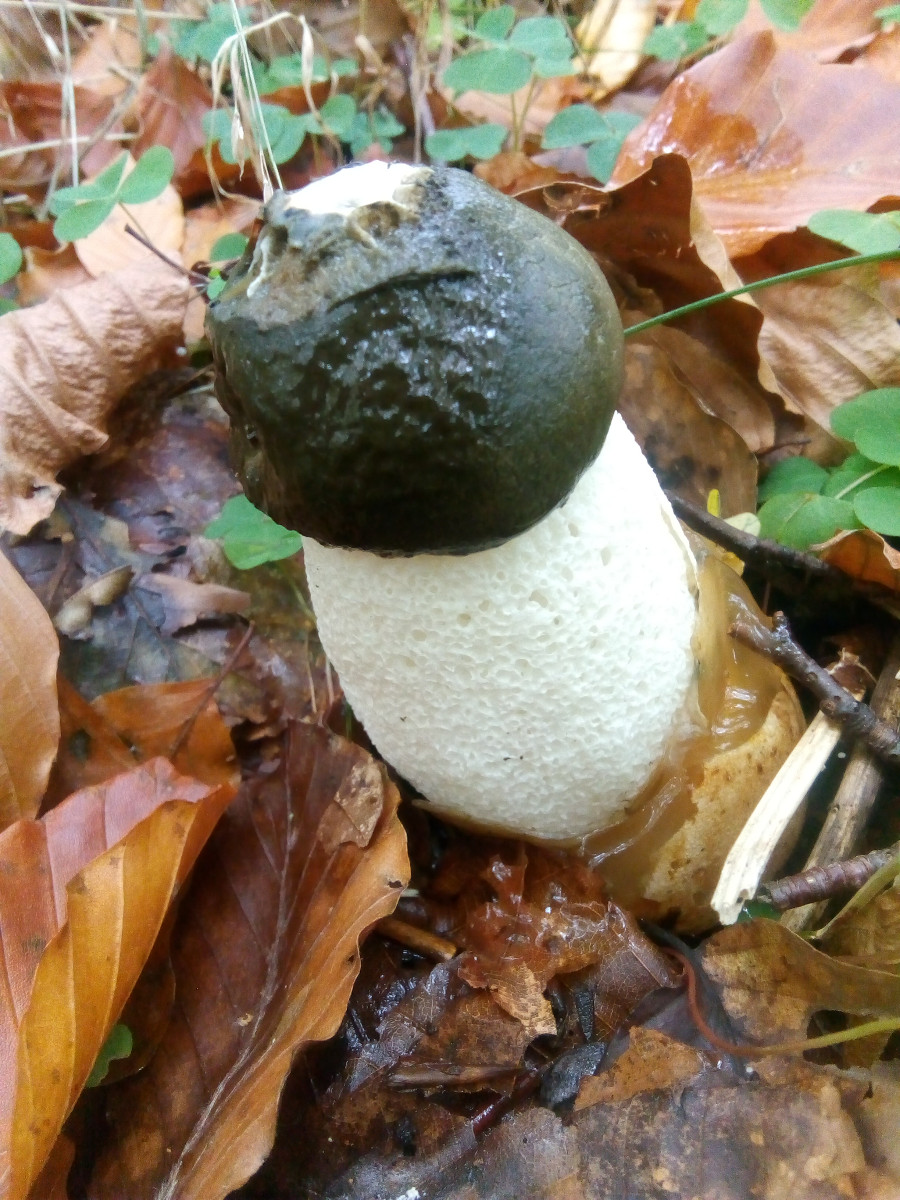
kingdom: Fungi
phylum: Basidiomycota
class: Agaricomycetes
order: Phallales
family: Phallaceae
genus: Phallus
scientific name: Phallus impudicus
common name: almindelig stinksvamp
